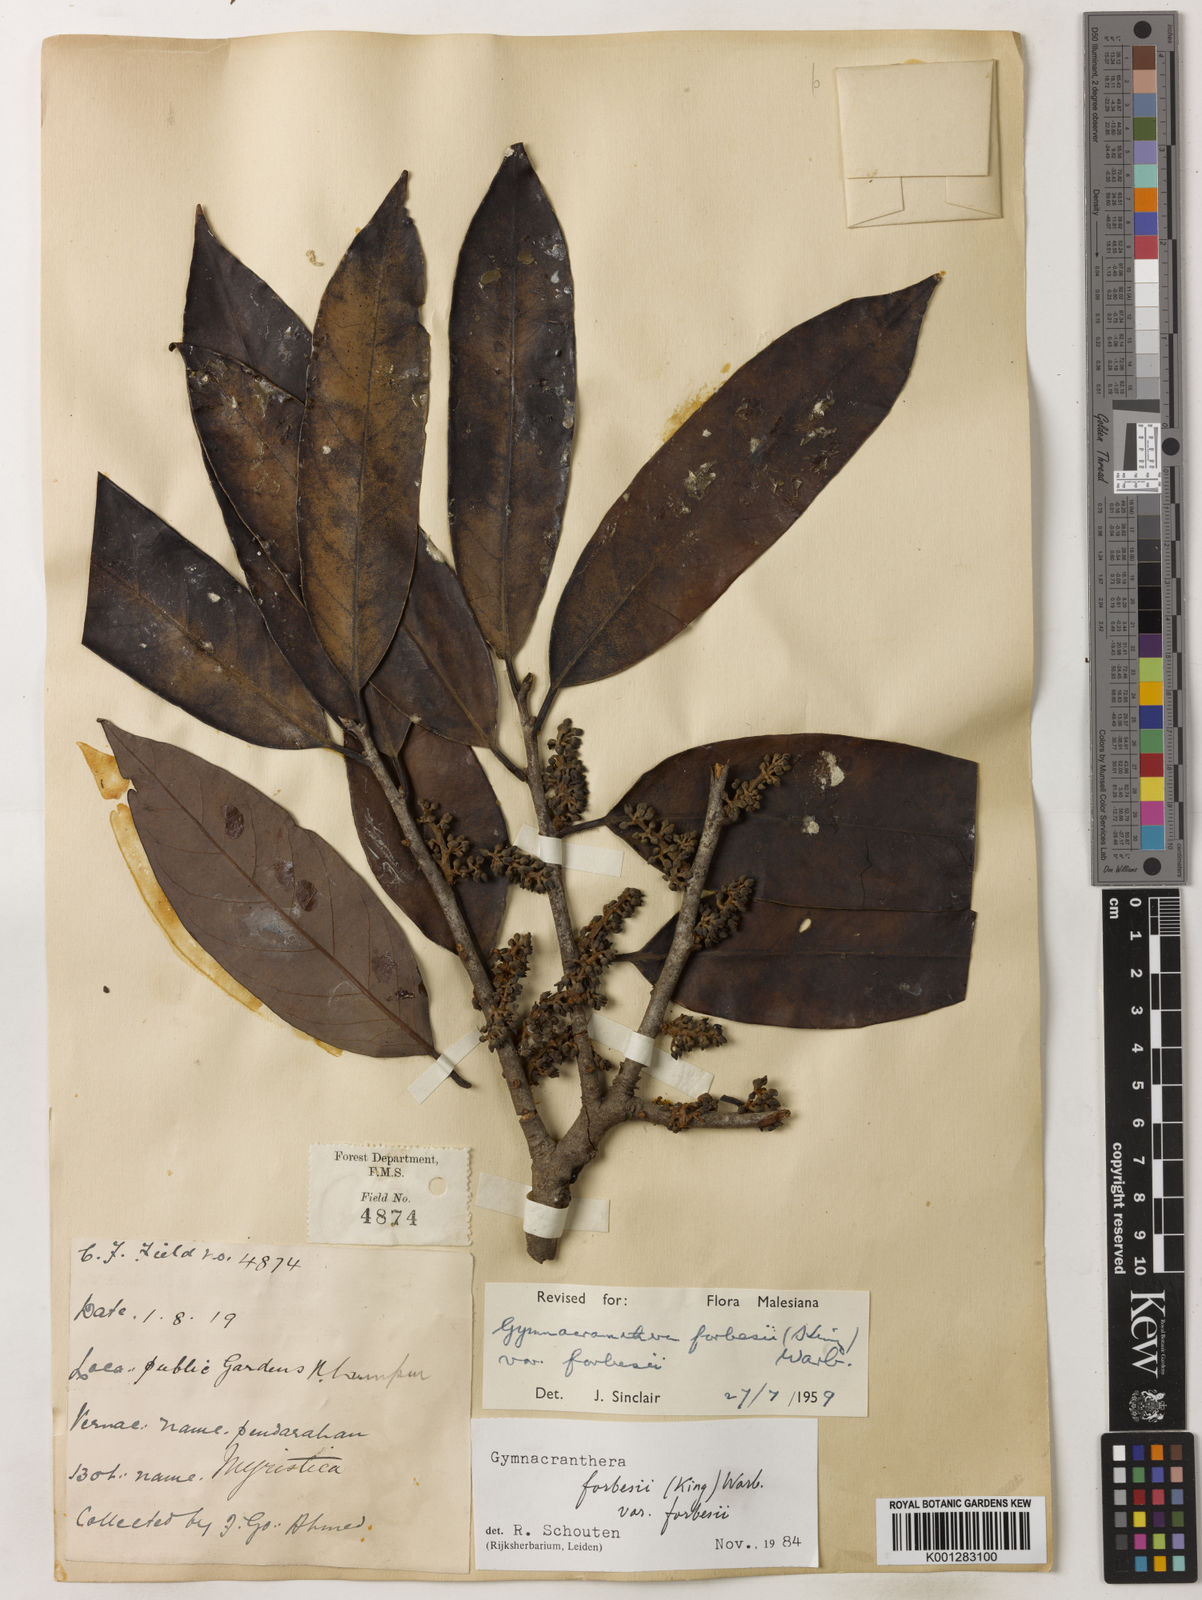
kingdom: Plantae
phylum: Tracheophyta
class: Magnoliopsida
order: Magnoliales
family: Myristicaceae
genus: Gymnacranthera
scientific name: Gymnacranthera forbesii
